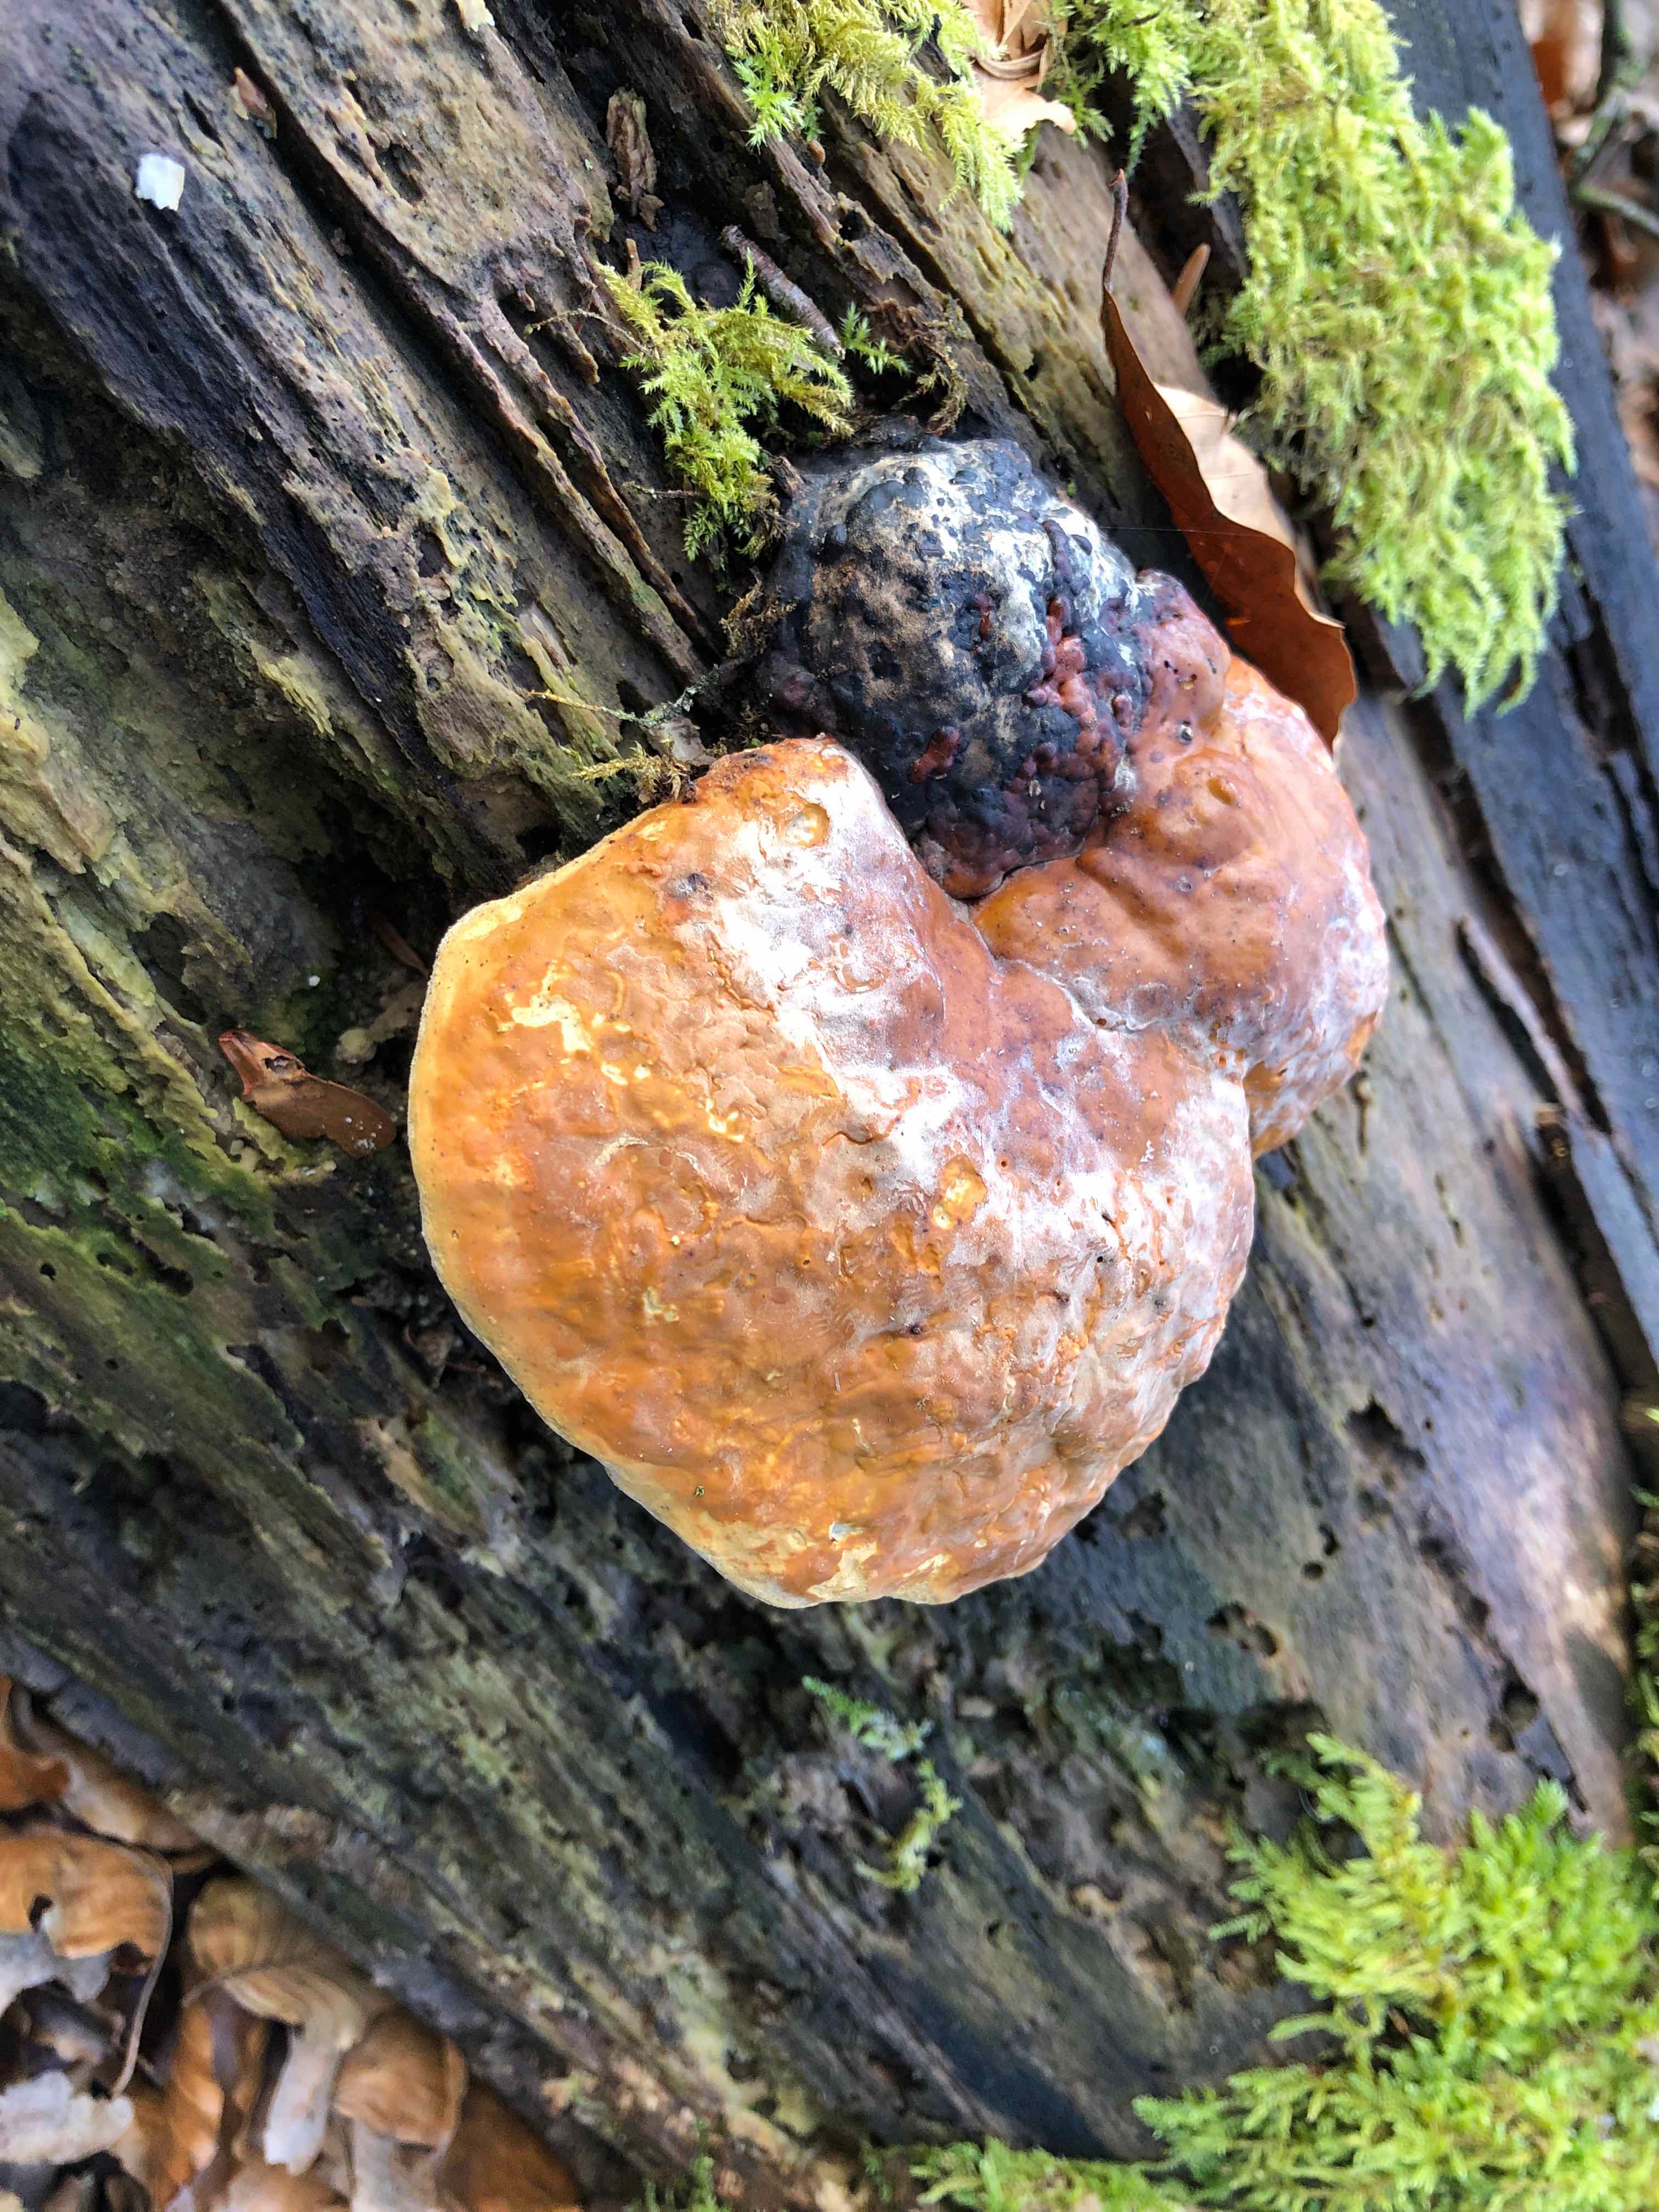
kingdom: Fungi
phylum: Basidiomycota
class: Agaricomycetes
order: Polyporales
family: Fomitopsidaceae
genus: Fomitopsis
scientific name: Fomitopsis pinicola
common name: randbæltet hovporesvamp
